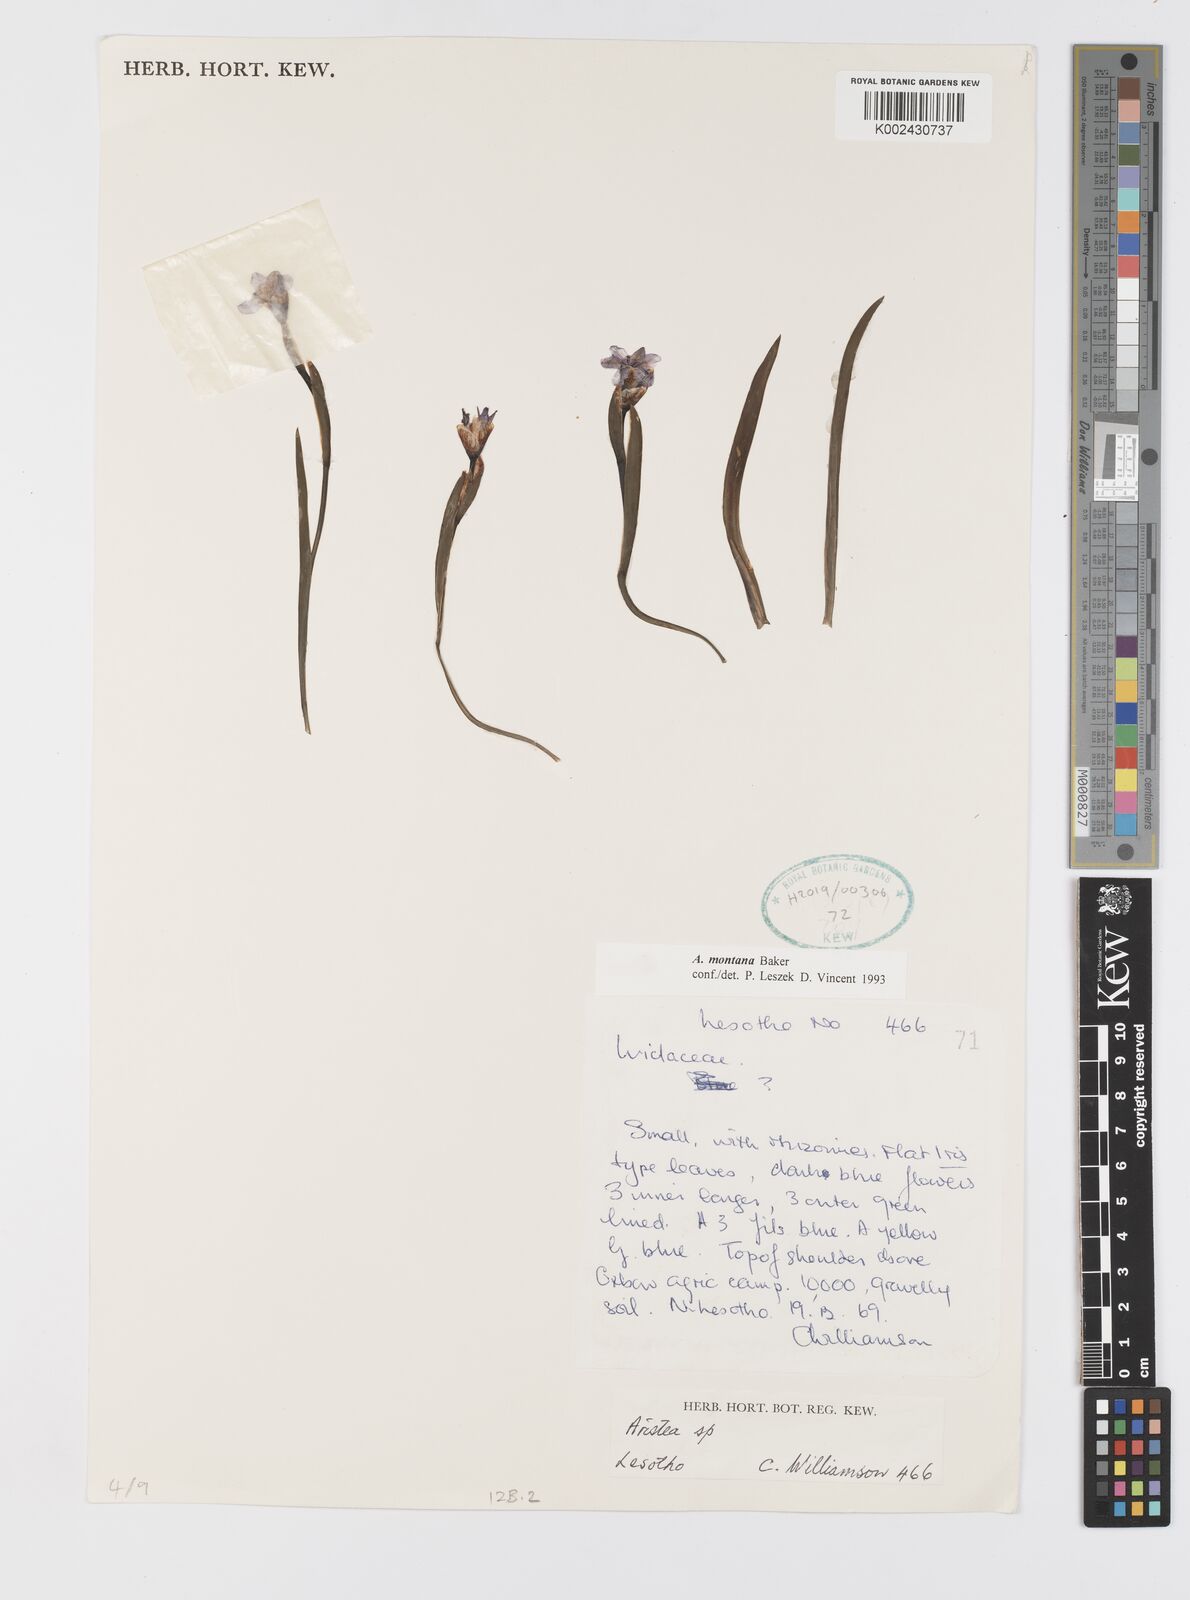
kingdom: Plantae
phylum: Tracheophyta
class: Liliopsida
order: Asparagales
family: Iridaceae
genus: Aristea
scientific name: Aristea montana
